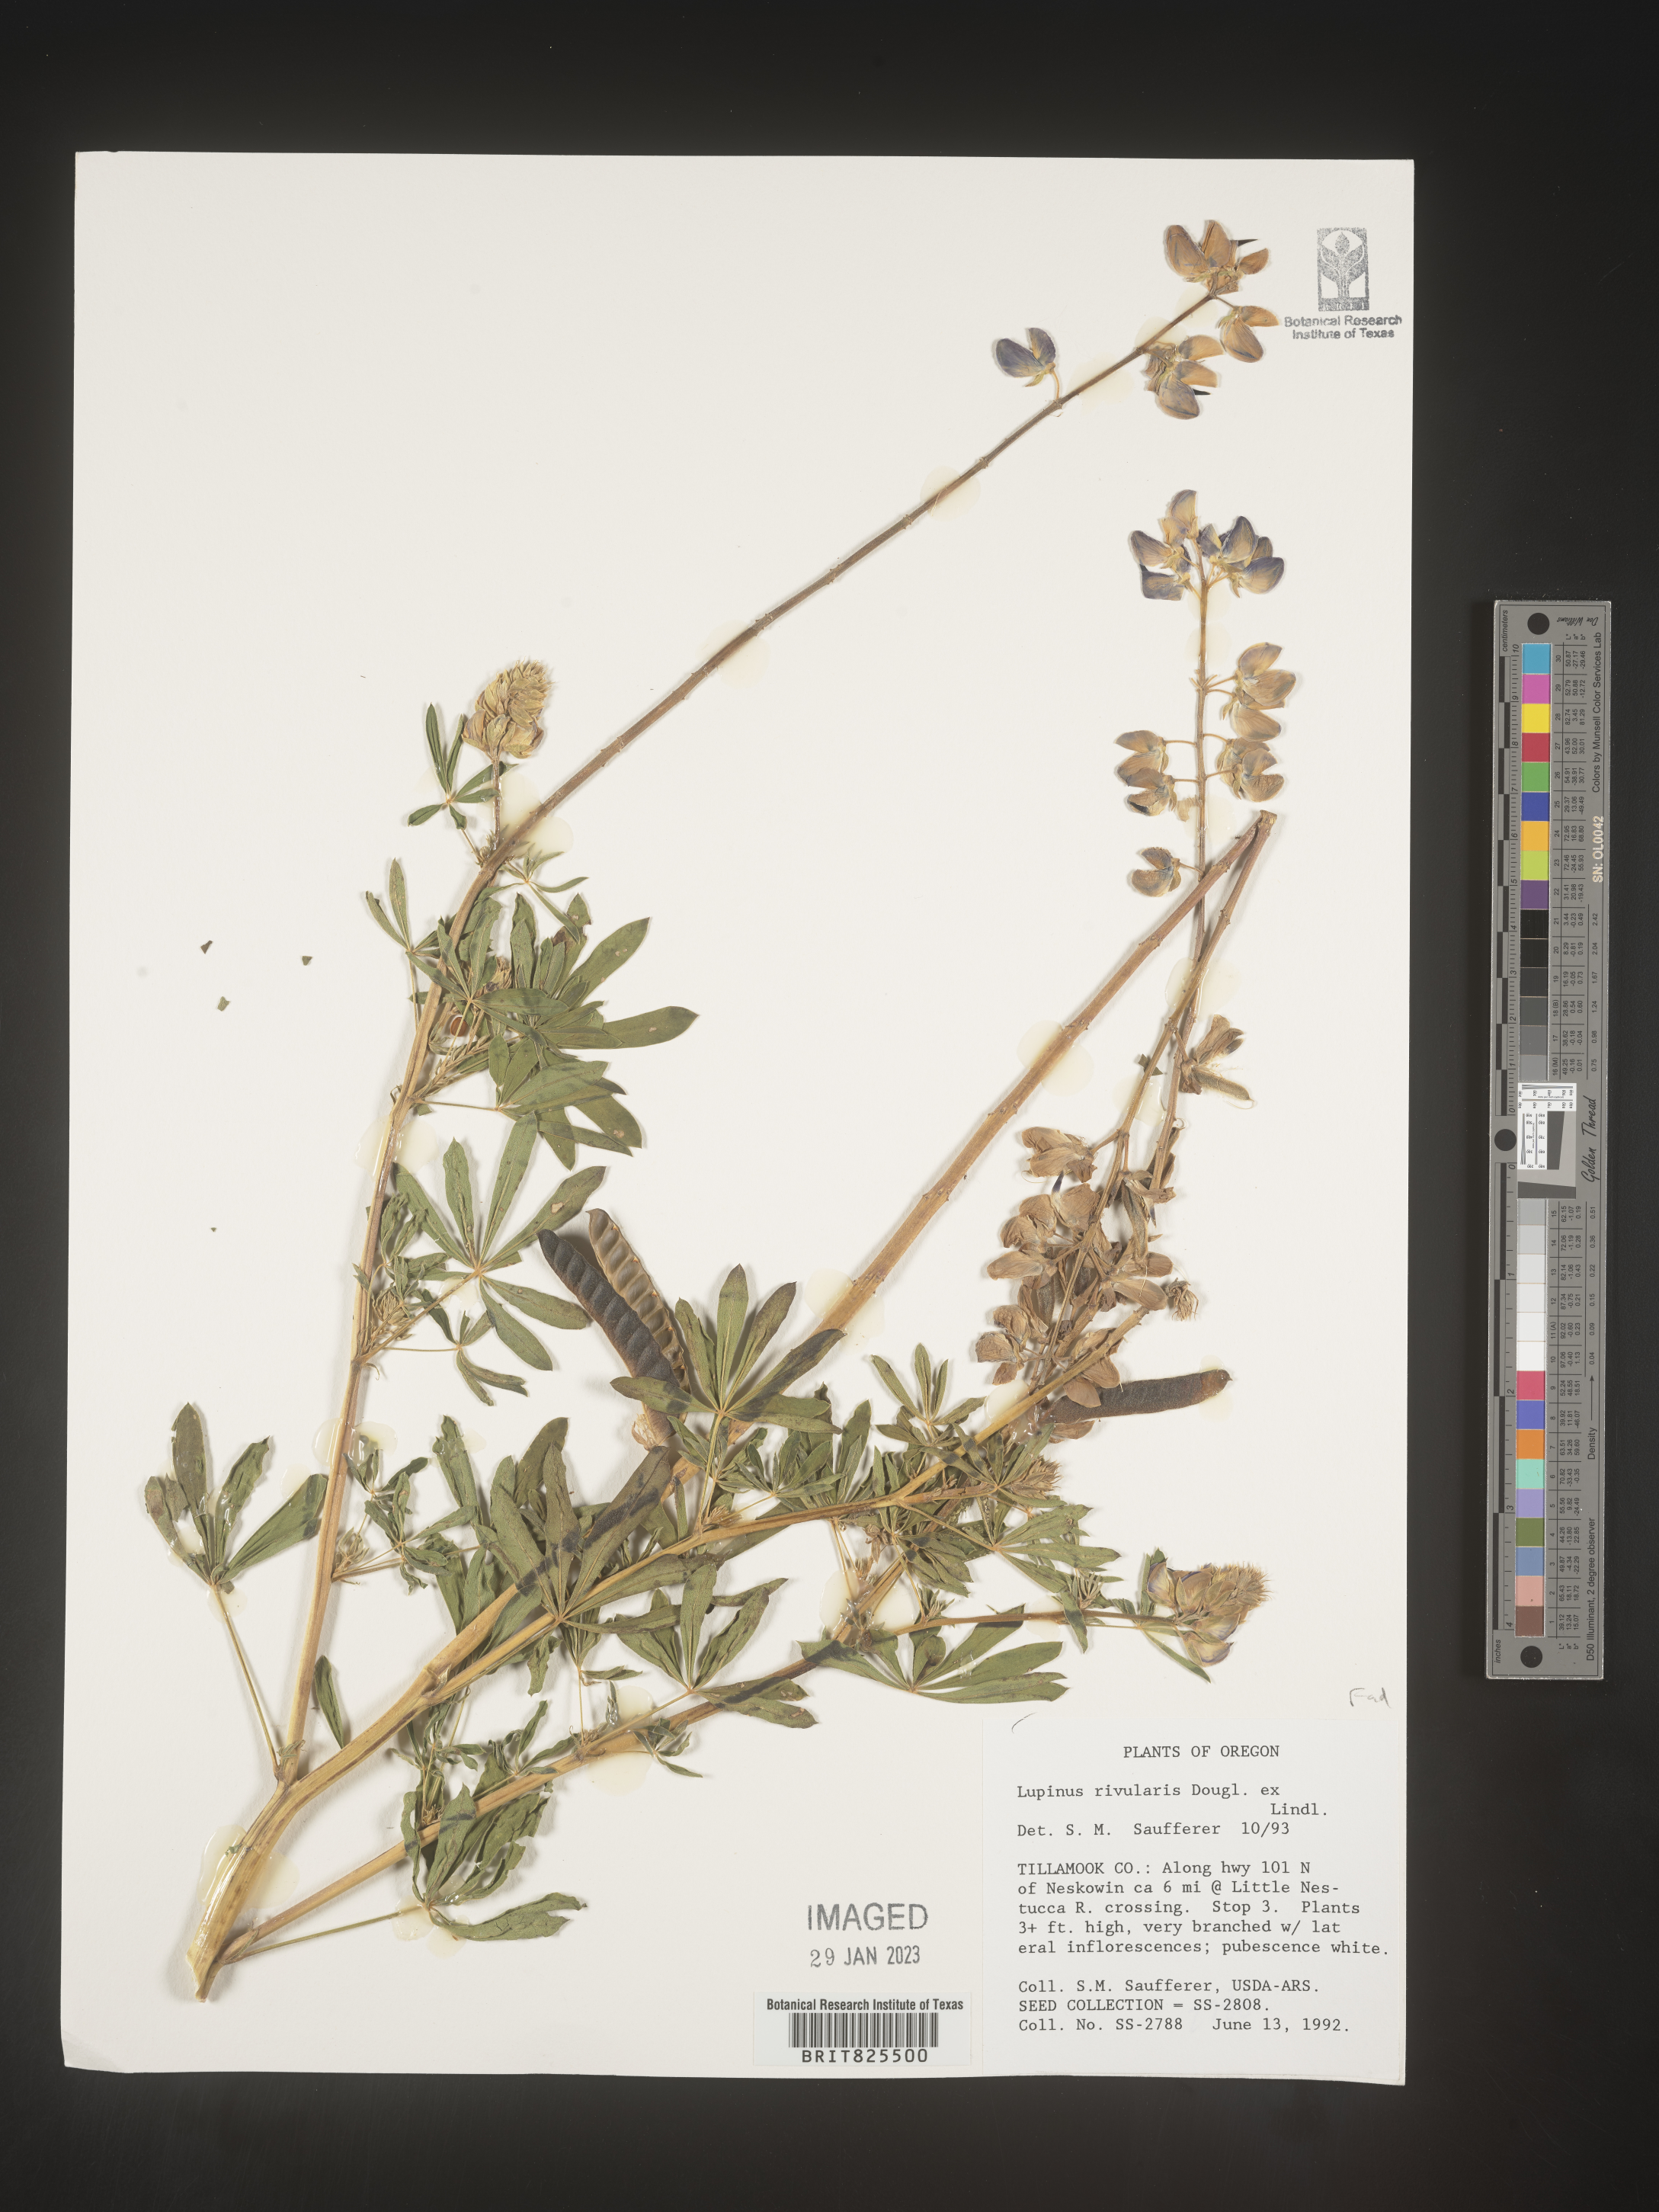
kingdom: Plantae
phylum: Tracheophyta
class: Magnoliopsida
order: Fabales
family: Fabaceae
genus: Lupinus
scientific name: Lupinus
